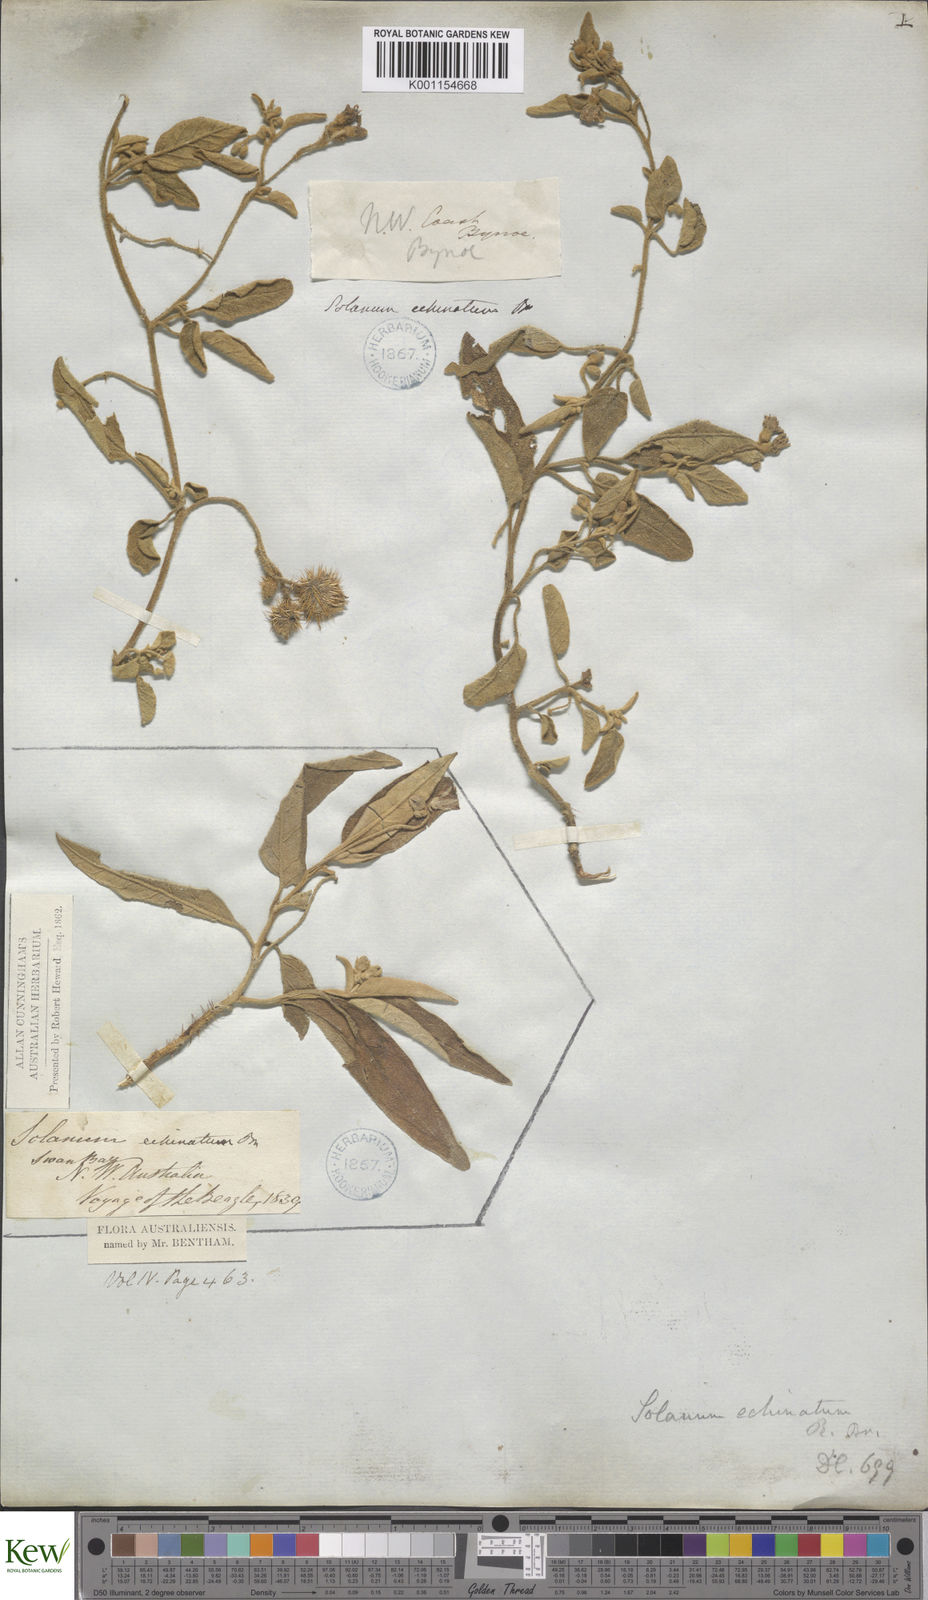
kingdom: Plantae
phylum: Tracheophyta
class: Magnoliopsida
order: Solanales
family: Solanaceae
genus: Solanum
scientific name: Solanum echinatum
